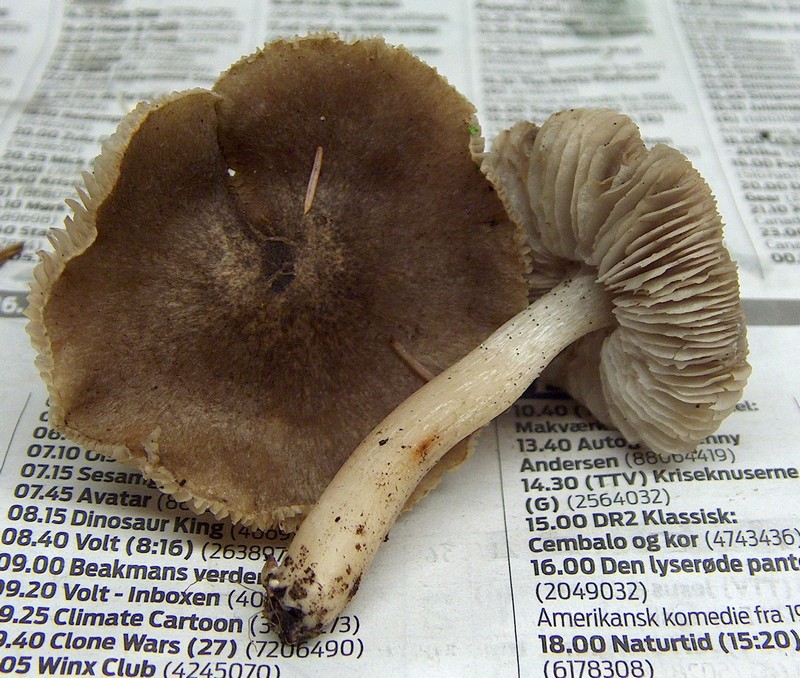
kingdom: Fungi
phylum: Basidiomycota
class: Agaricomycetes
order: Agaricales
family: Tricholomataceae
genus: Tricholoma
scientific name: Tricholoma terreum
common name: jordfarvet ridderhat
